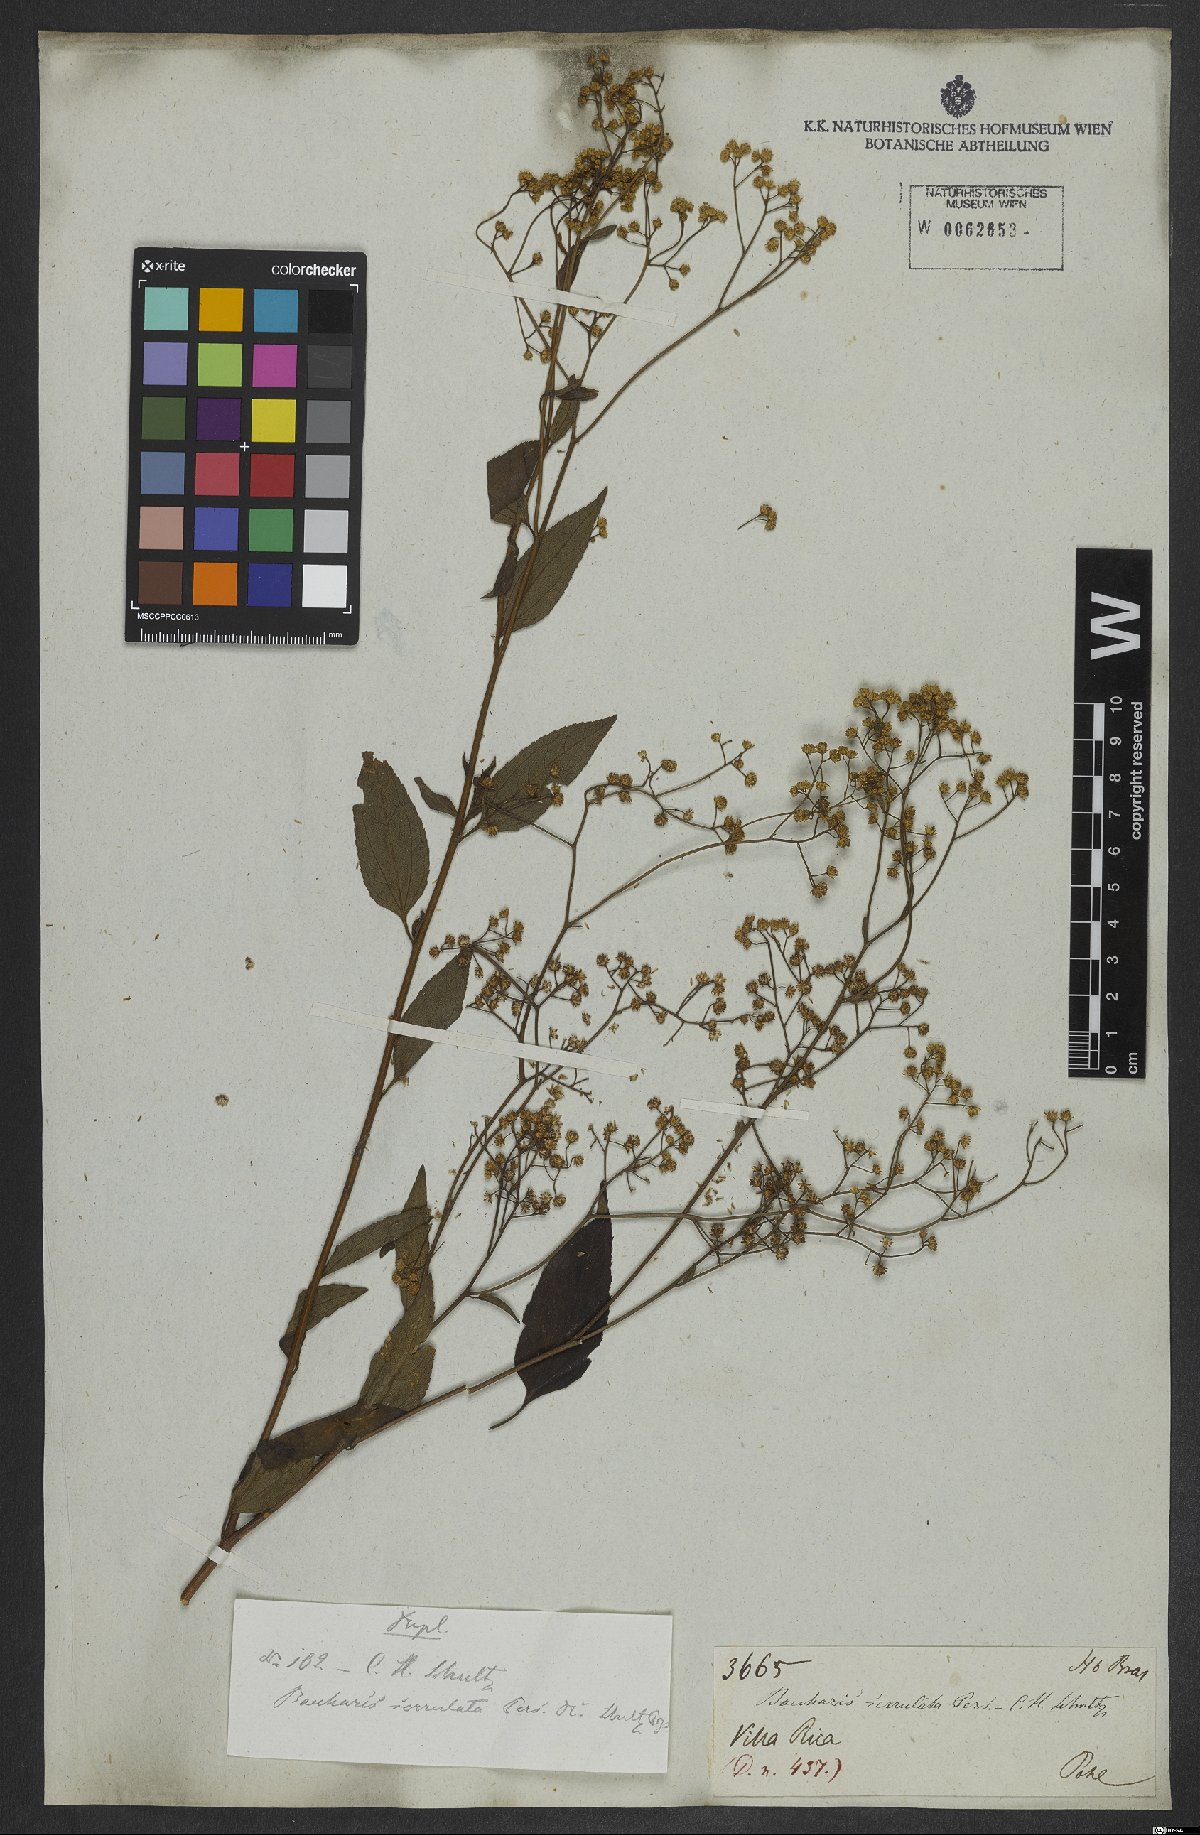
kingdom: Plantae
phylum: Tracheophyta
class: Magnoliopsida
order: Asterales
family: Asteraceae
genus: Archibaccharis
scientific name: Archibaccharis vulneraria
